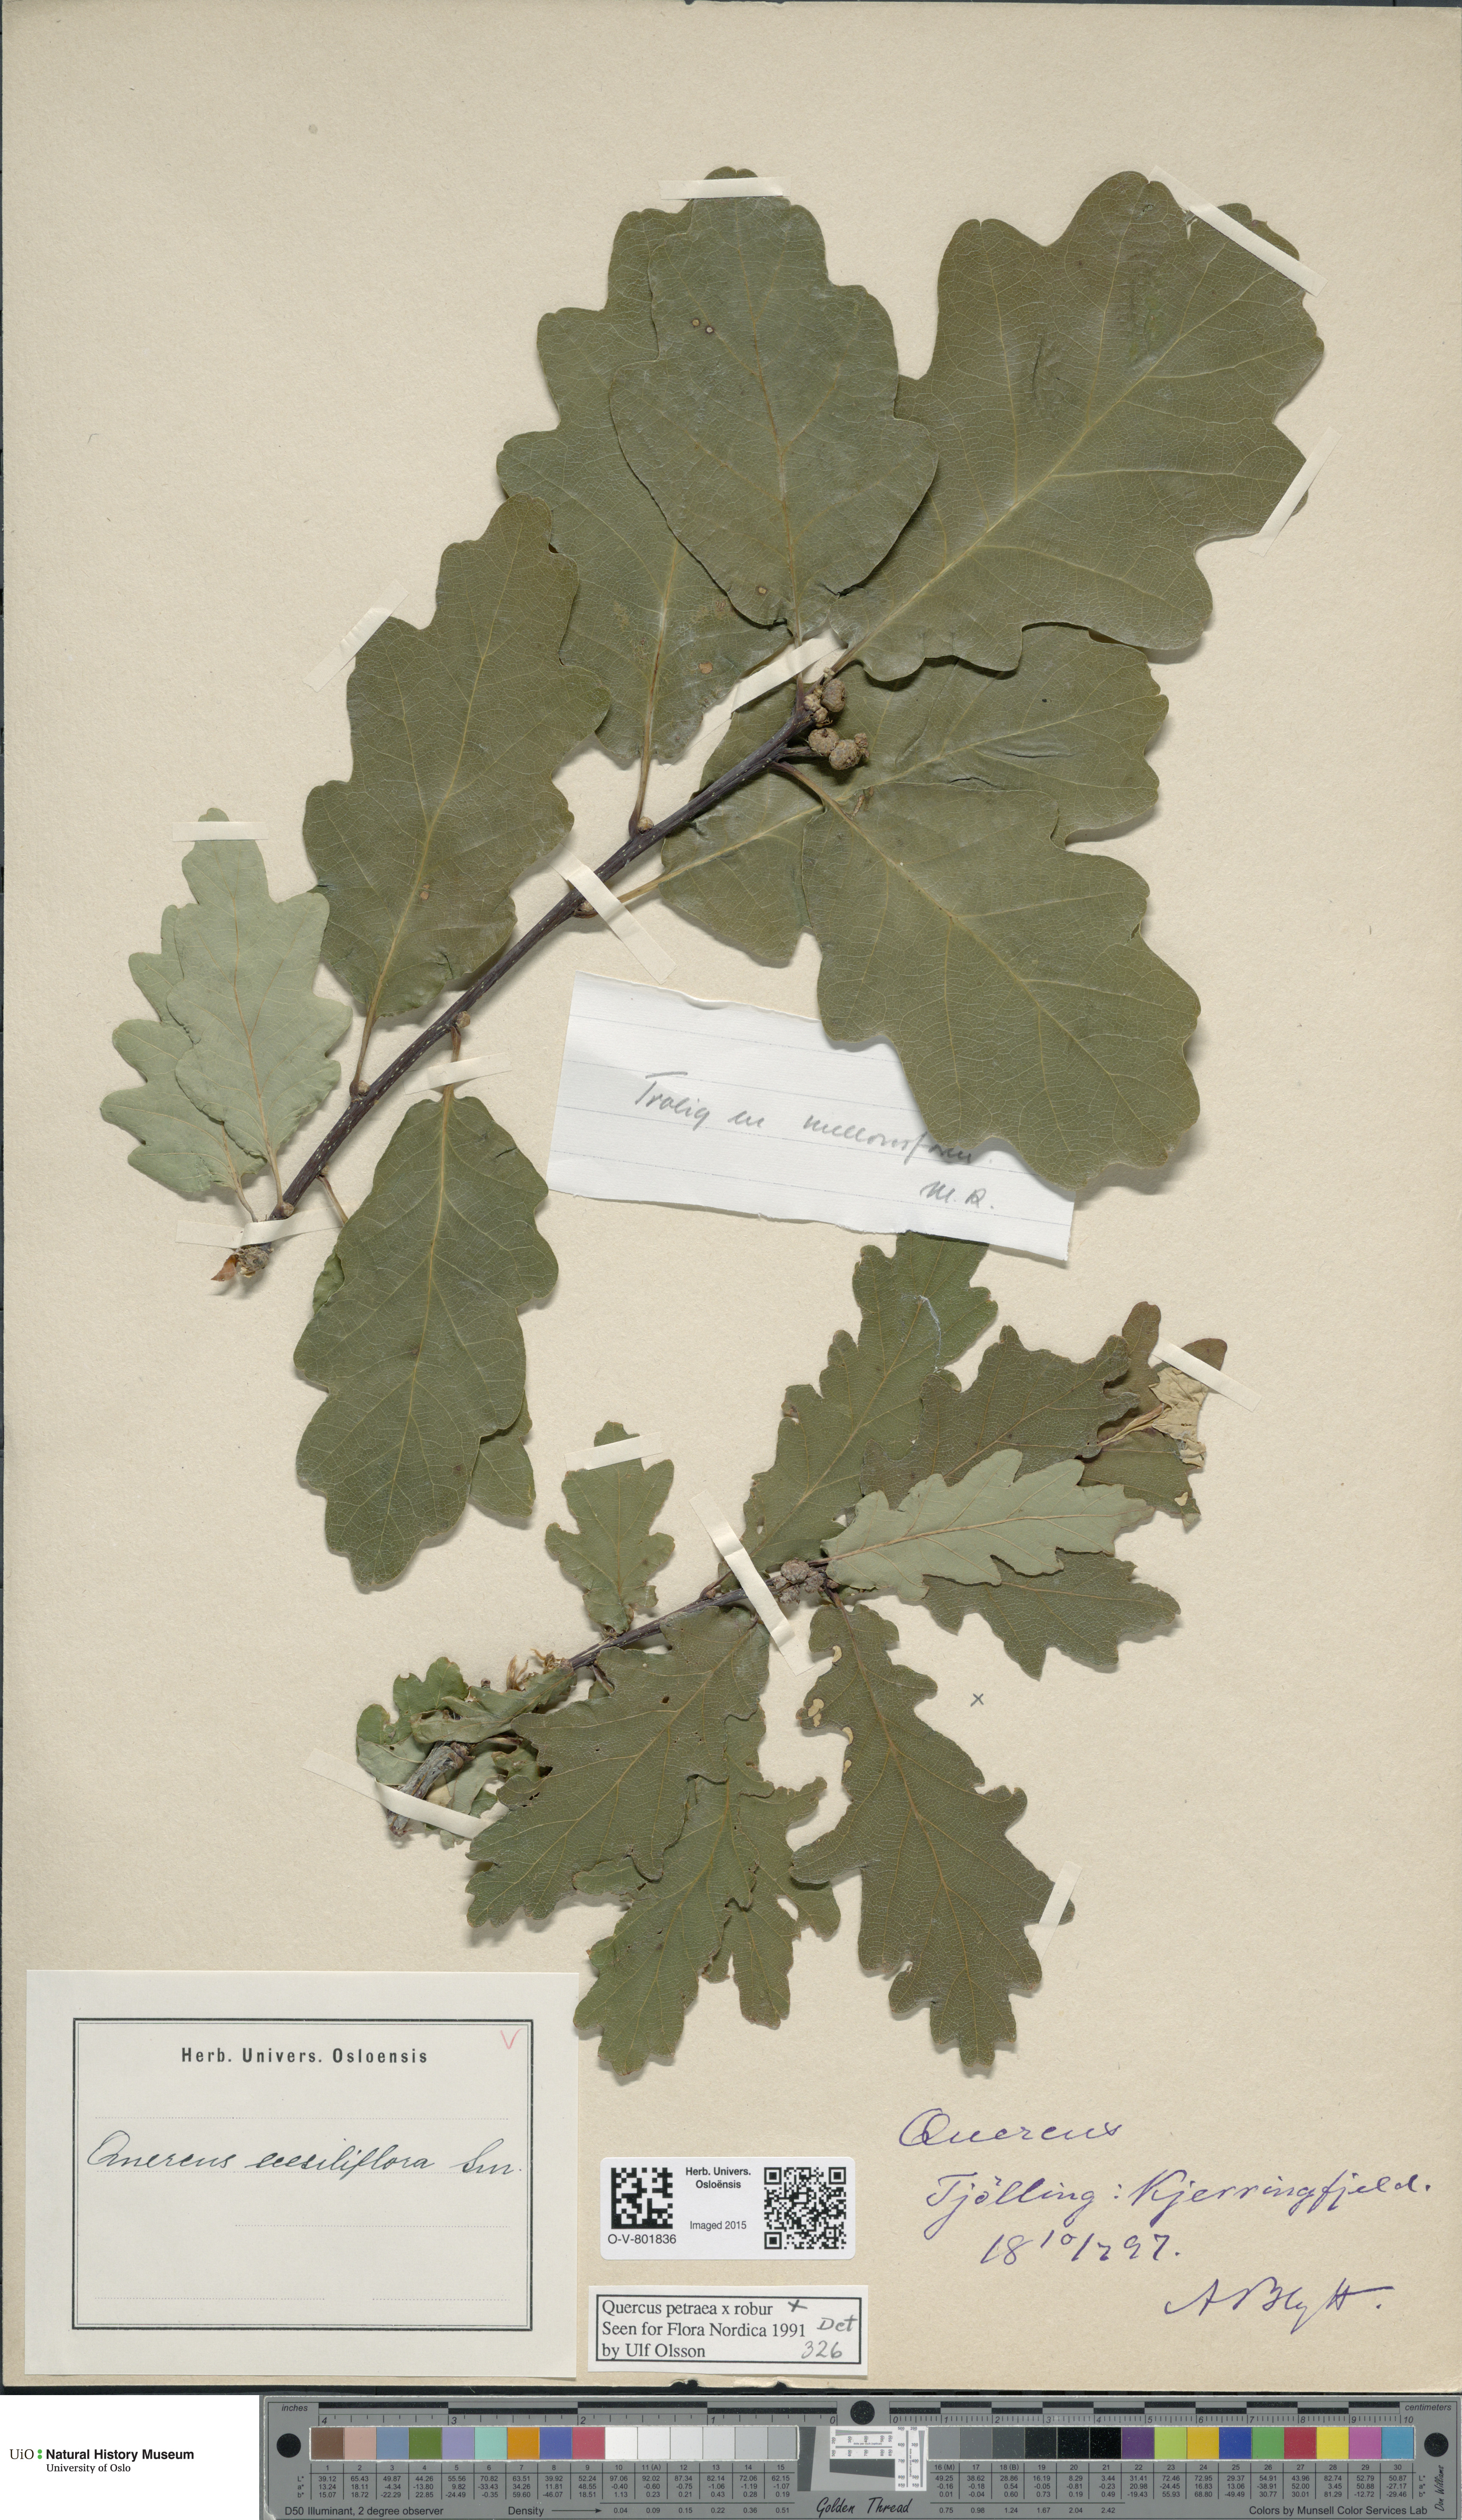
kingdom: Plantae
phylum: Tracheophyta
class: Magnoliopsida
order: Fagales
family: Fagaceae
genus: Quercus
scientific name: Quercus petraea
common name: Sessile oak
